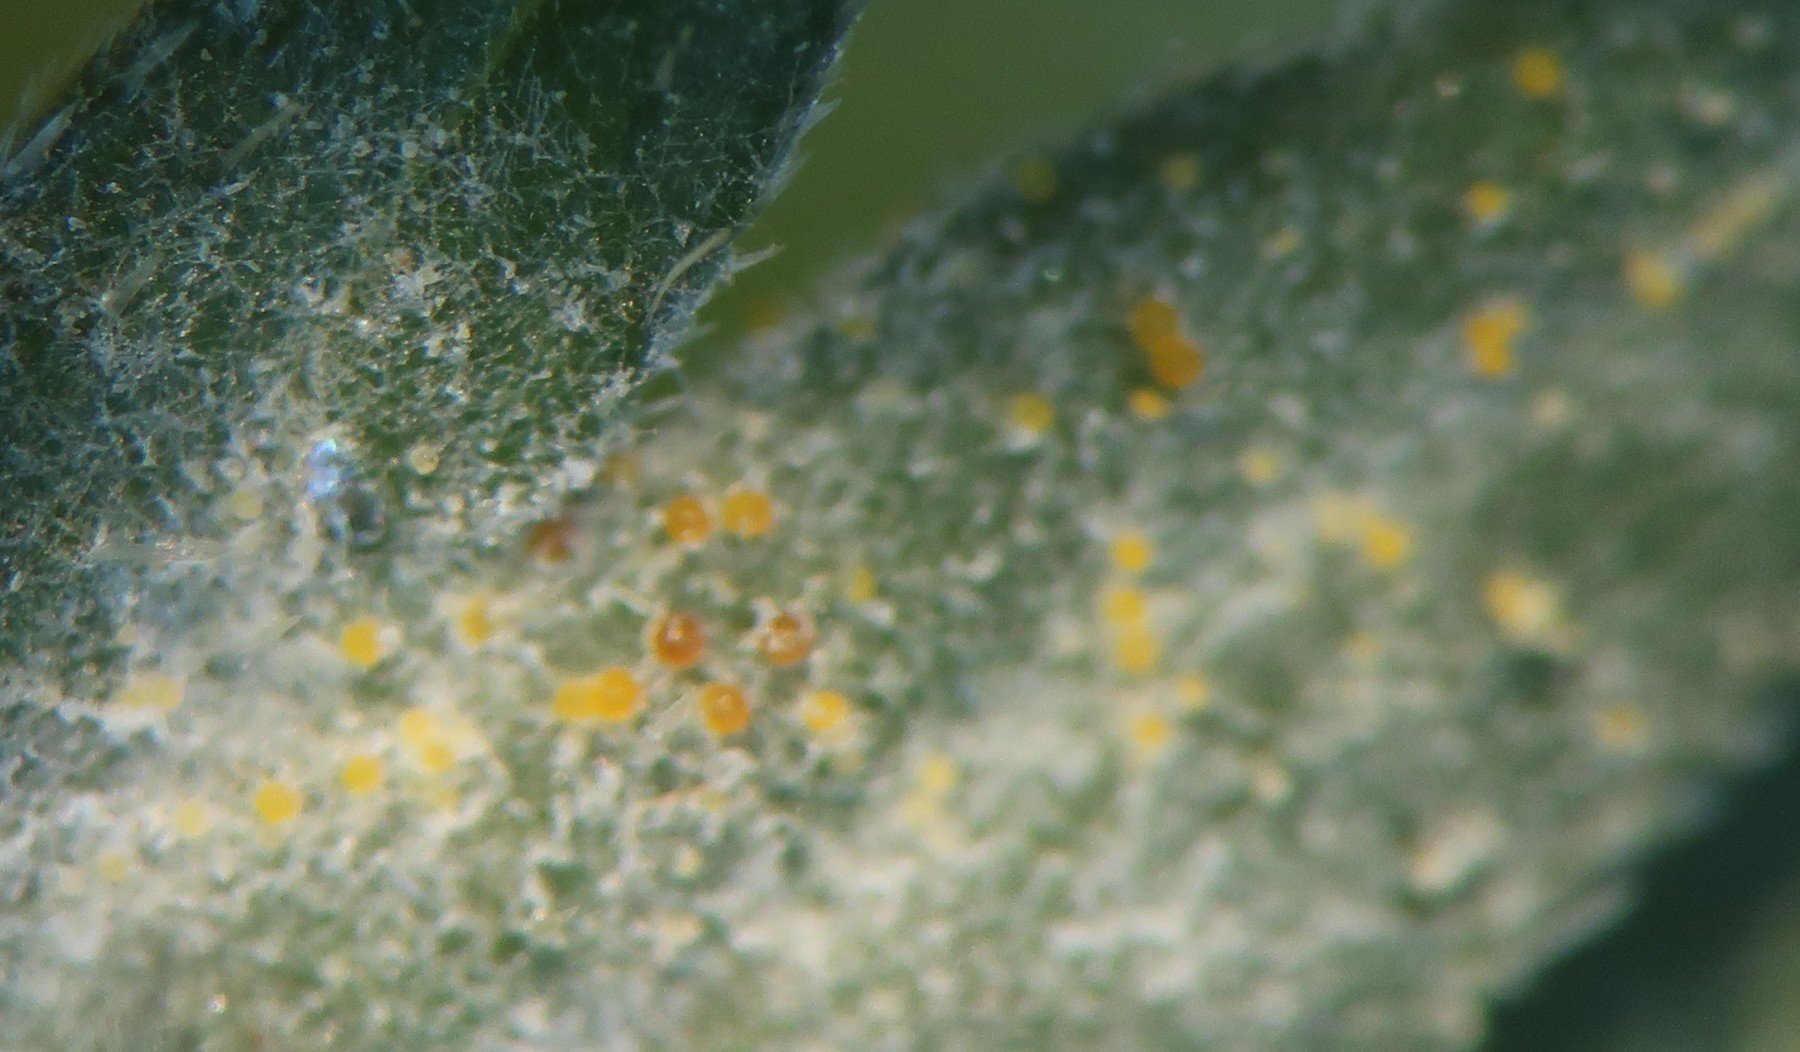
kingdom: Fungi
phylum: Ascomycota
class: Leotiomycetes
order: Helotiales
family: Erysiphaceae
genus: Erysiphe
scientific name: Erysiphe heraclei
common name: skærmplante-meldug
